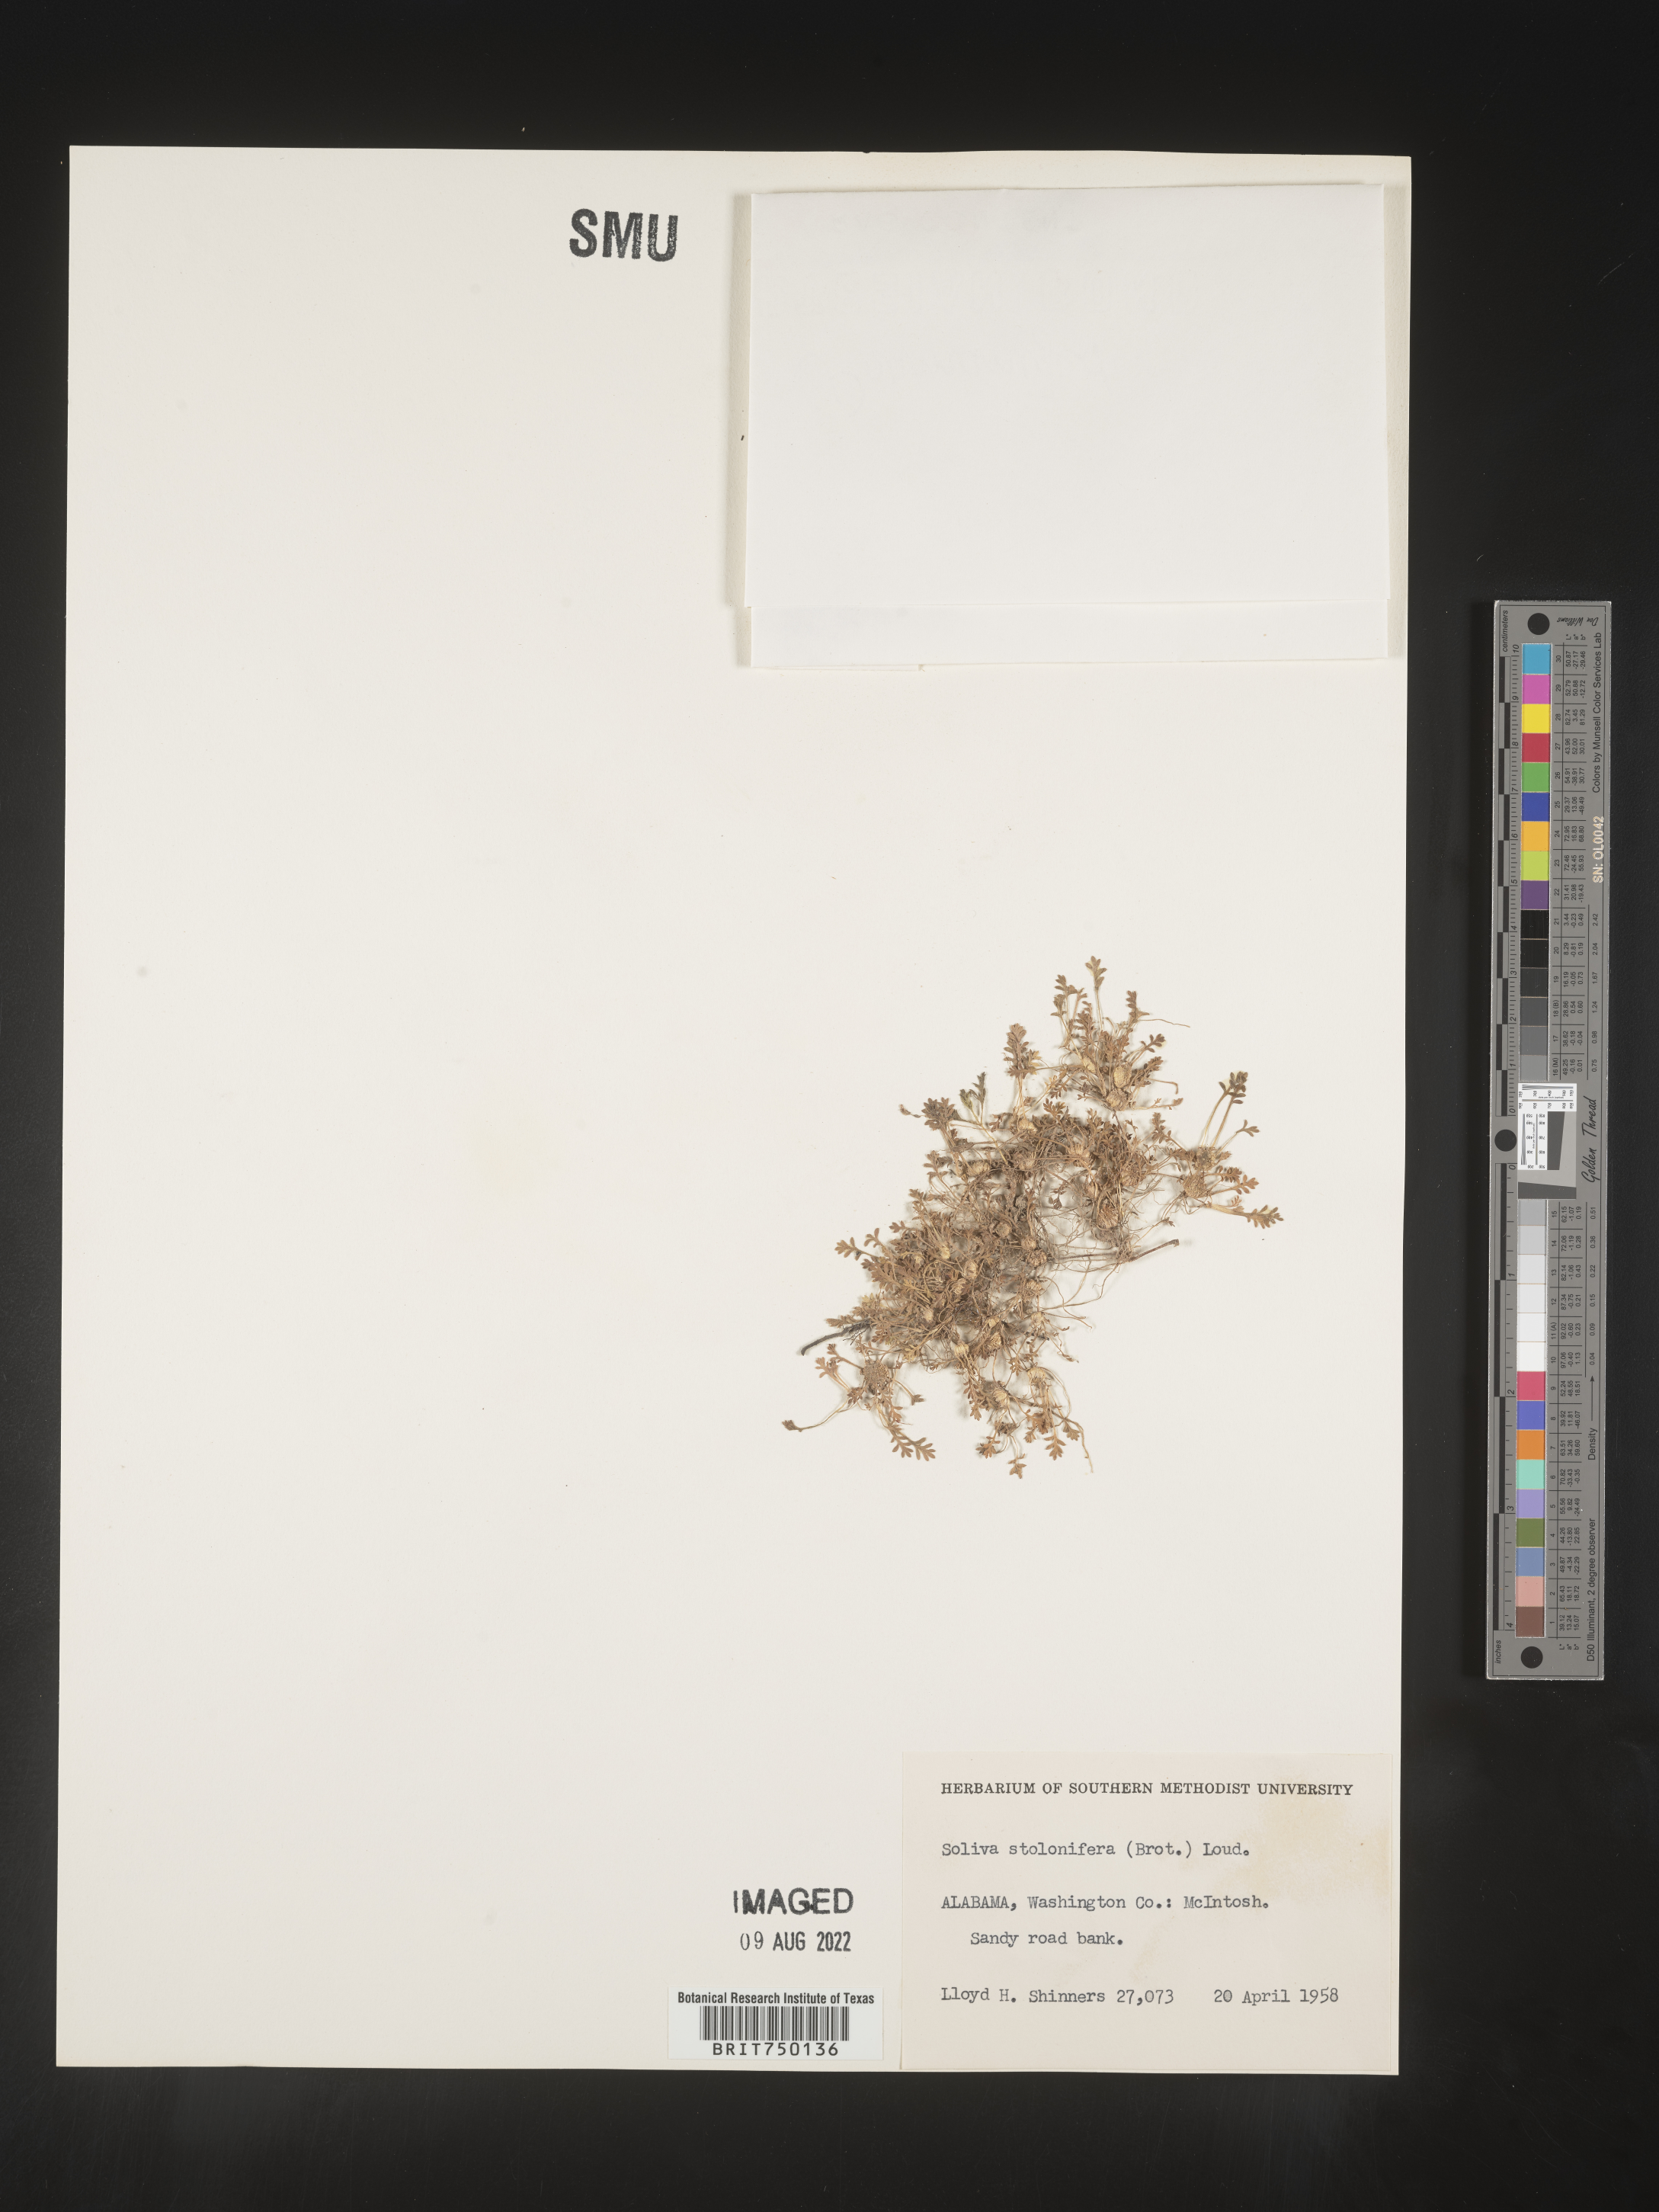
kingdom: Plantae
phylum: Tracheophyta
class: Magnoliopsida
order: Asterales
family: Asteraceae
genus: Soliva
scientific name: Soliva
